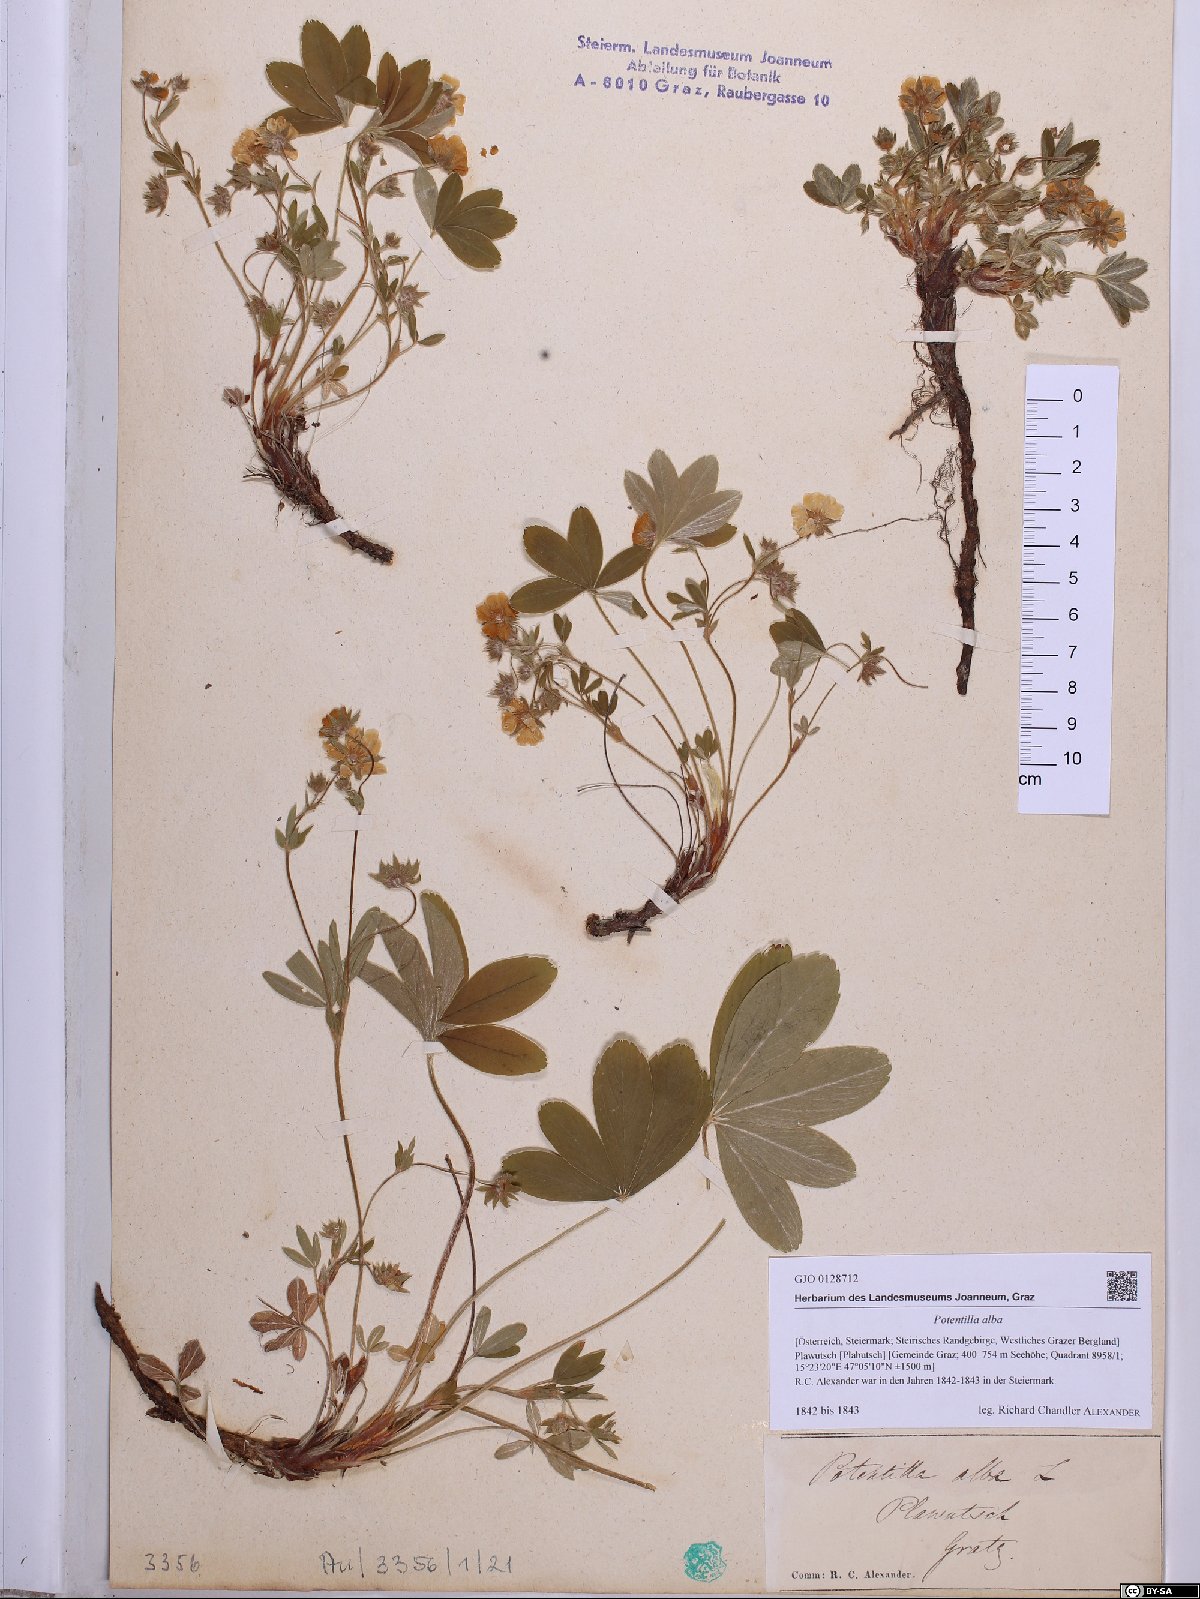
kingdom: Plantae
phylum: Tracheophyta
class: Magnoliopsida
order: Rosales
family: Rosaceae
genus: Potentilla
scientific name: Potentilla alba
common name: White cinquefoil
